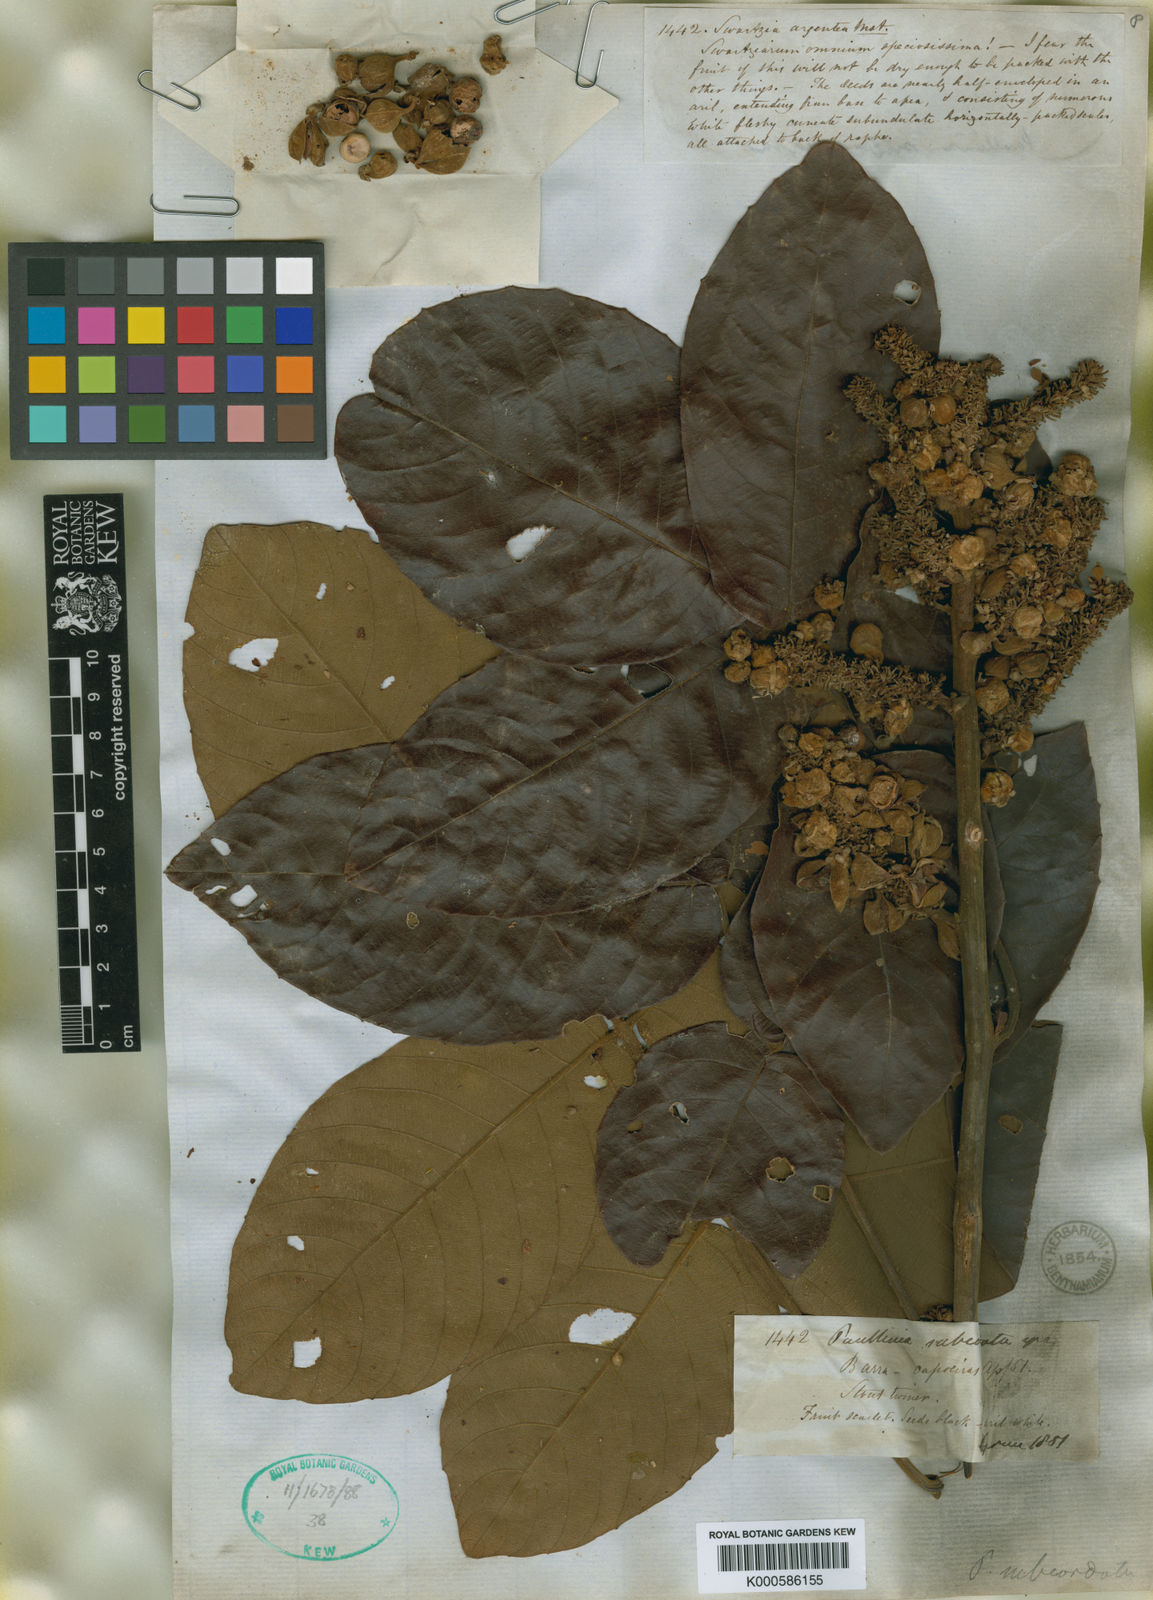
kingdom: Plantae
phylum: Tracheophyta
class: Magnoliopsida
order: Sapindales
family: Sapindaceae
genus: Paullinia
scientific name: Paullinia rugosa
